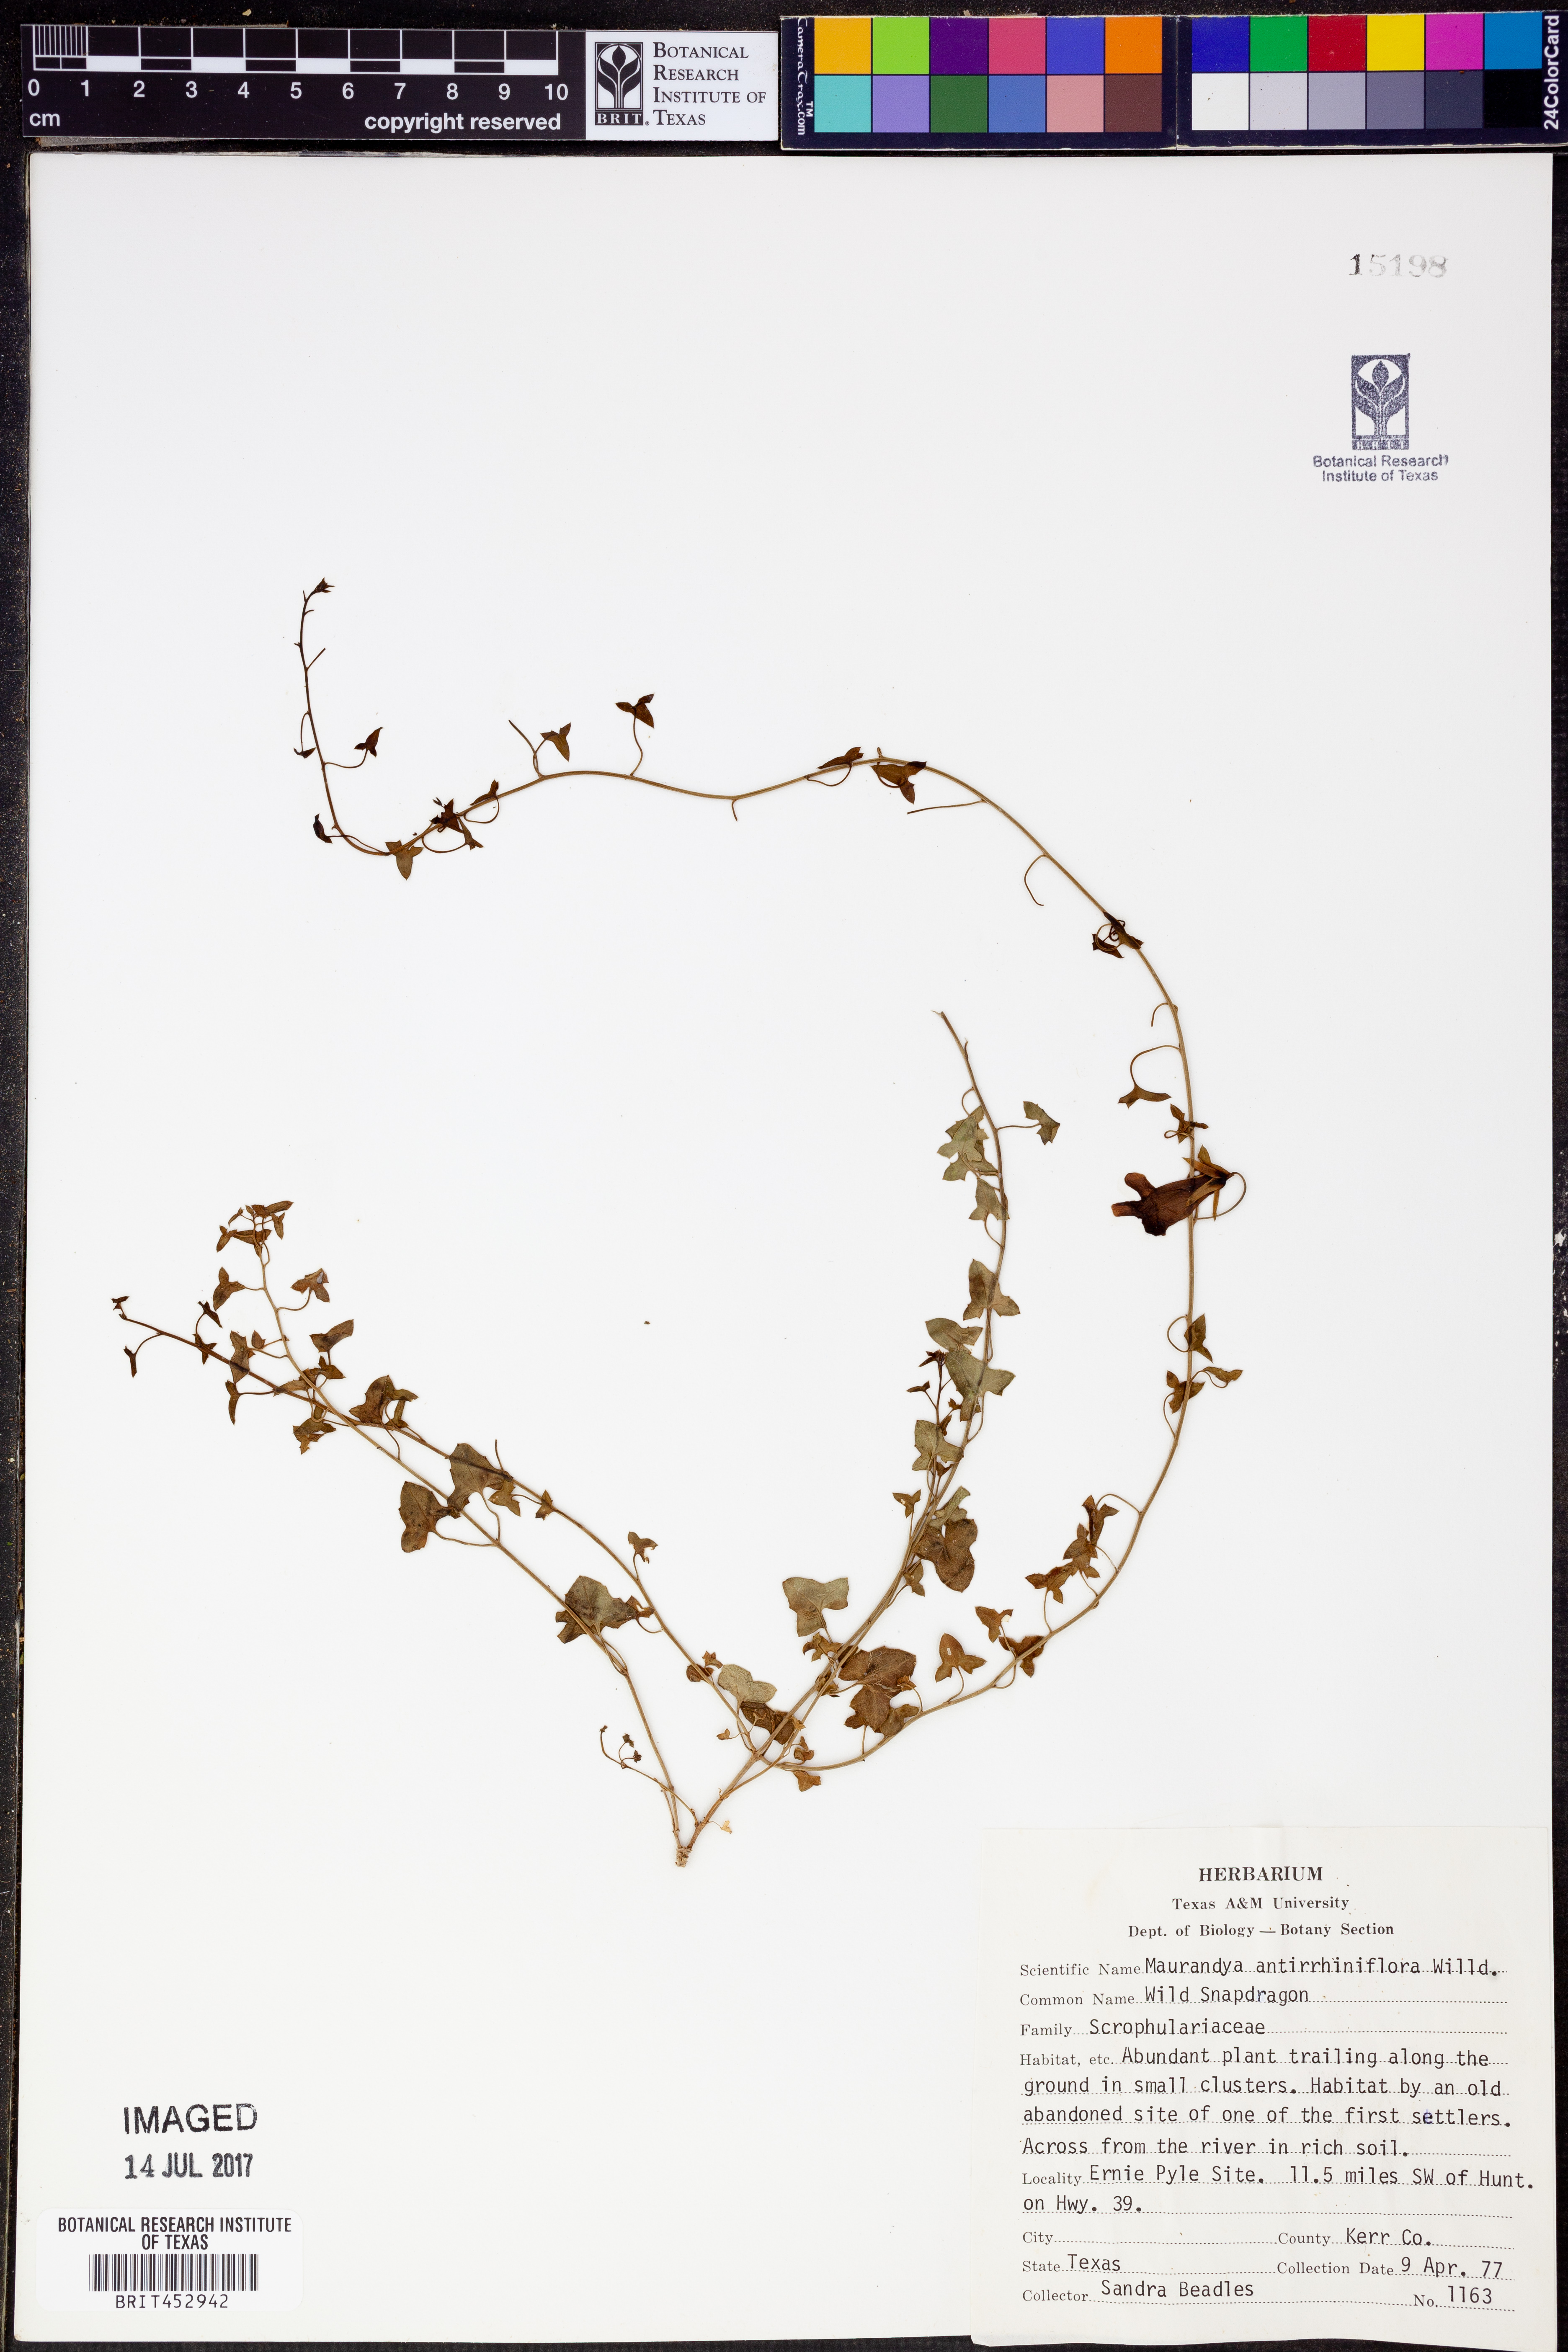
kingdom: Plantae
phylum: Tracheophyta
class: Magnoliopsida
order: Lamiales
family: Plantaginaceae
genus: Maurandella
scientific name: Maurandella antirrhiniflora
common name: Violet twining-snapdragon
